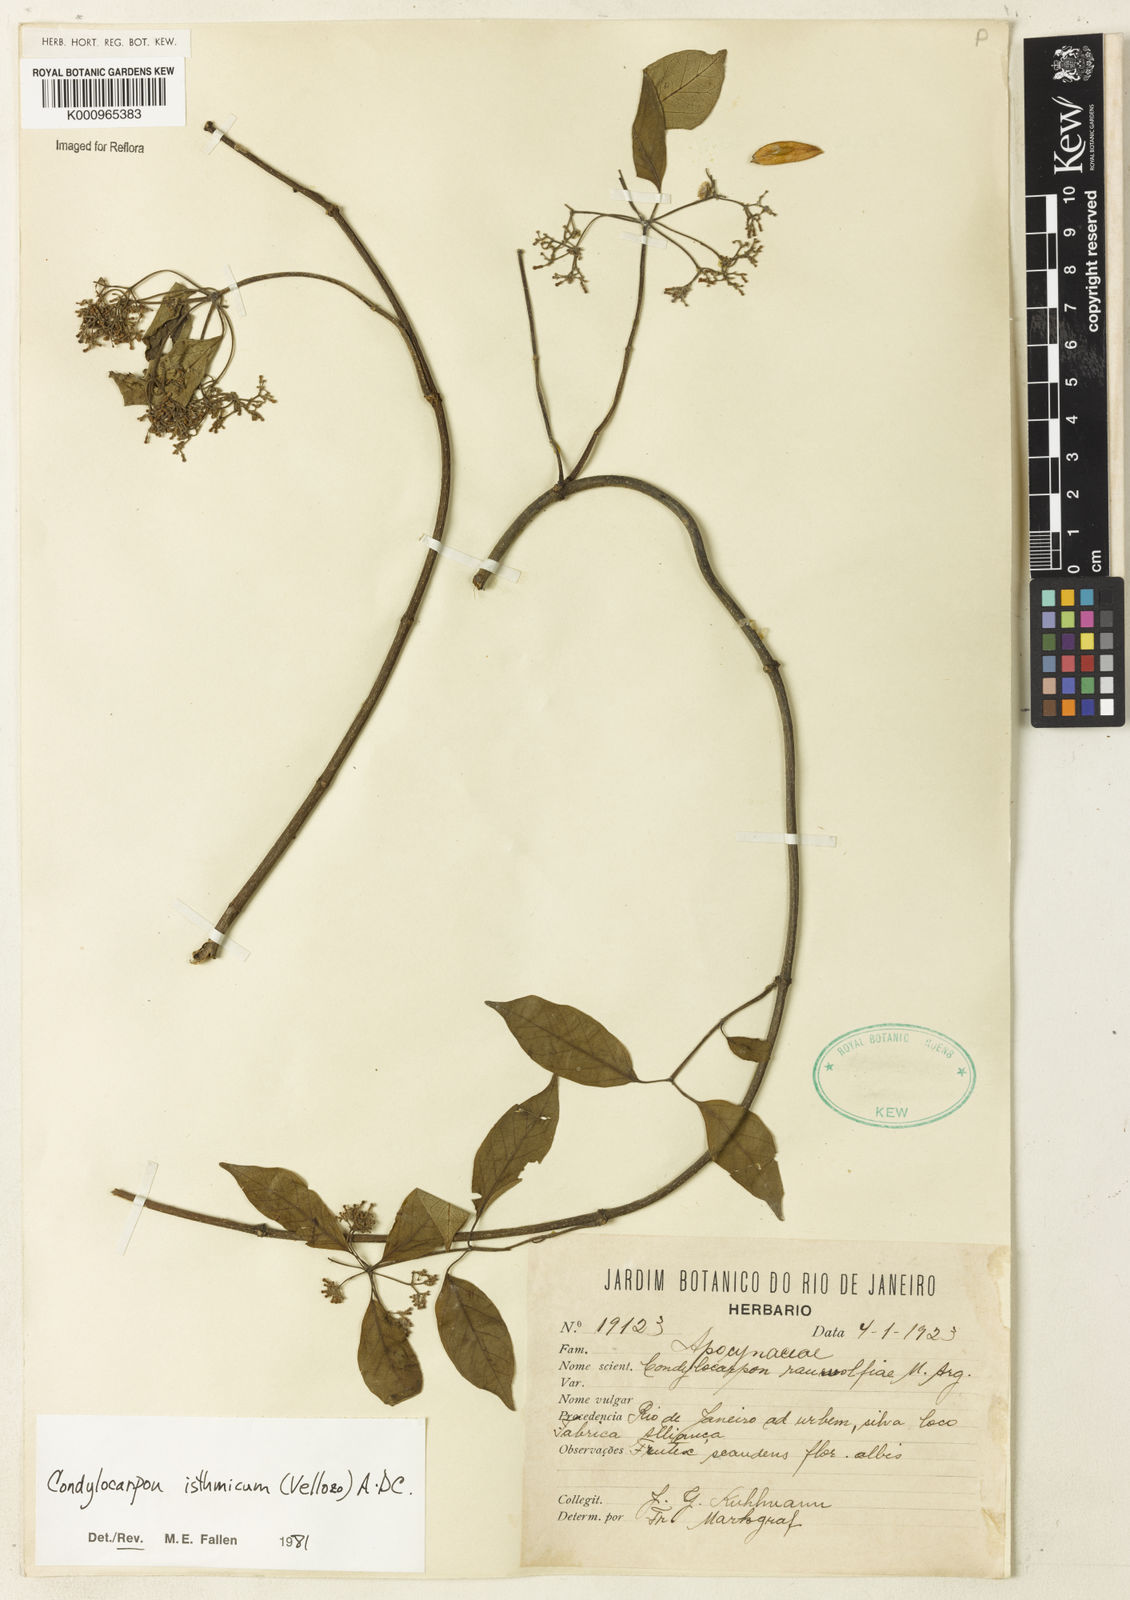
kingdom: Plantae
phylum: Tracheophyta
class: Magnoliopsida
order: Gentianales
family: Apocynaceae
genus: Condylocarpon
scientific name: Condylocarpon isthmicum
